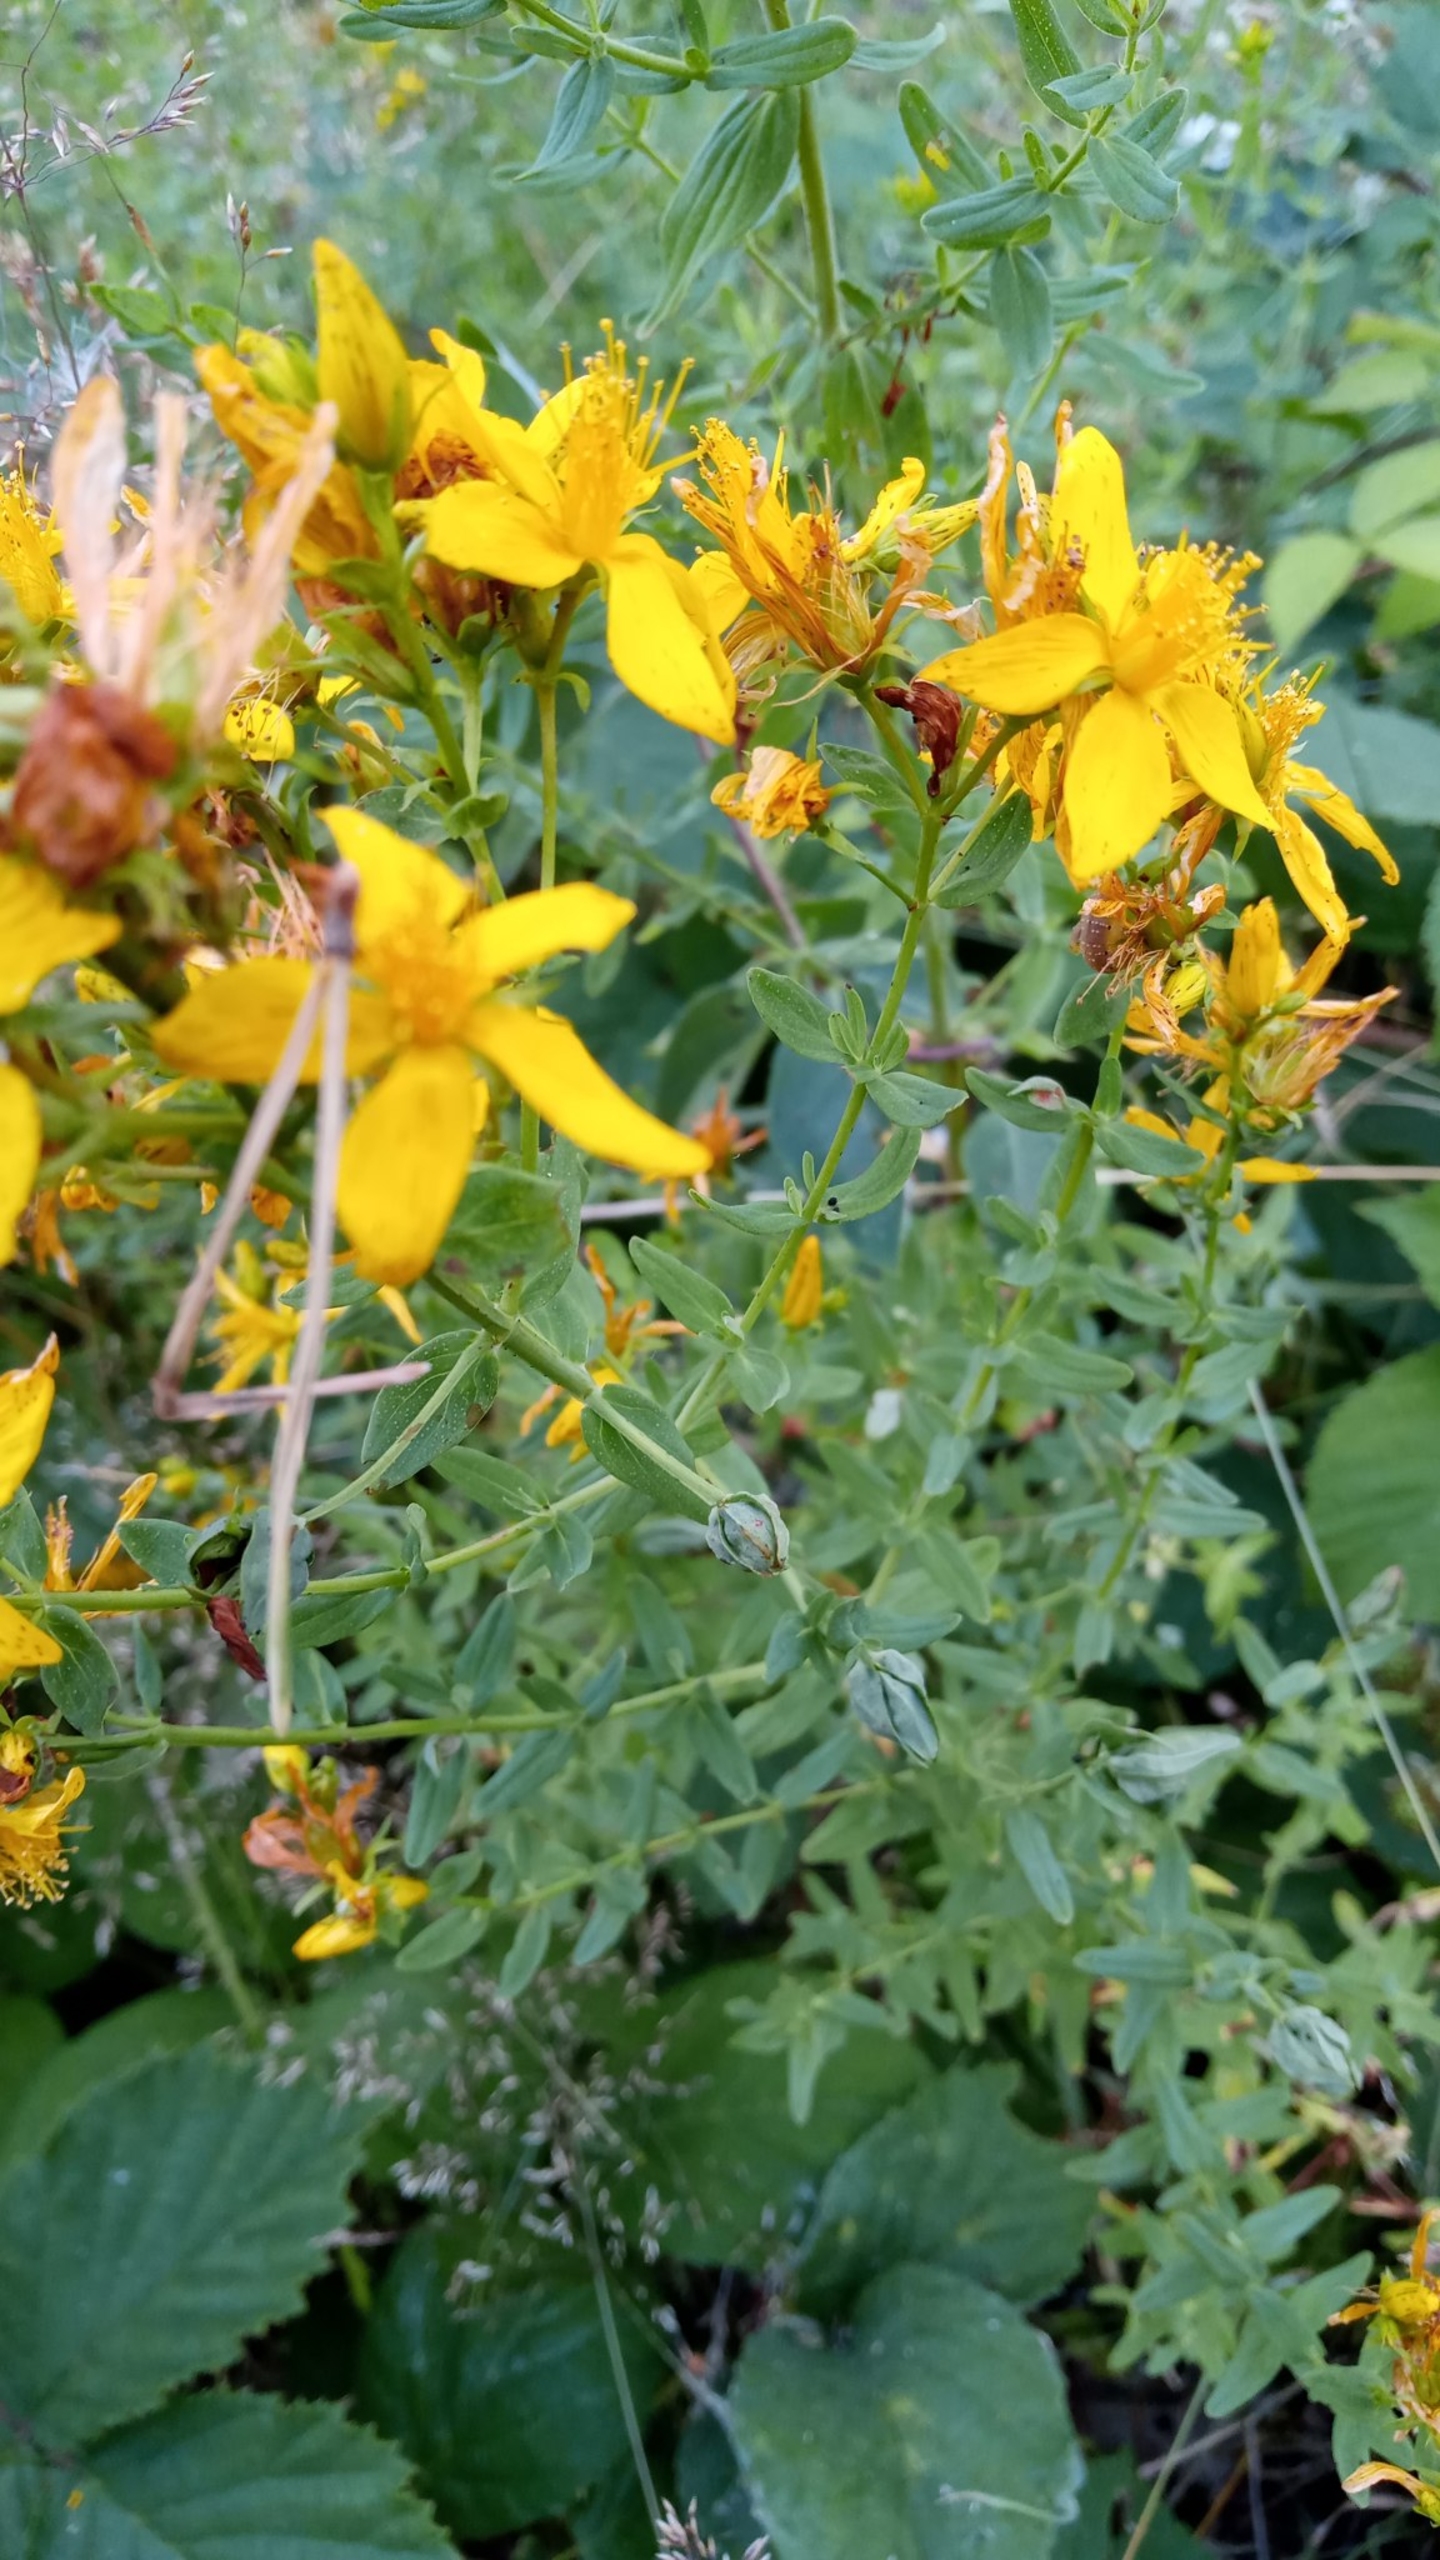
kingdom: Plantae
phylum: Tracheophyta
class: Magnoliopsida
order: Malpighiales
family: Hypericaceae
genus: Hypericum
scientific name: Hypericum perforatum
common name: Prikbladet perikon
